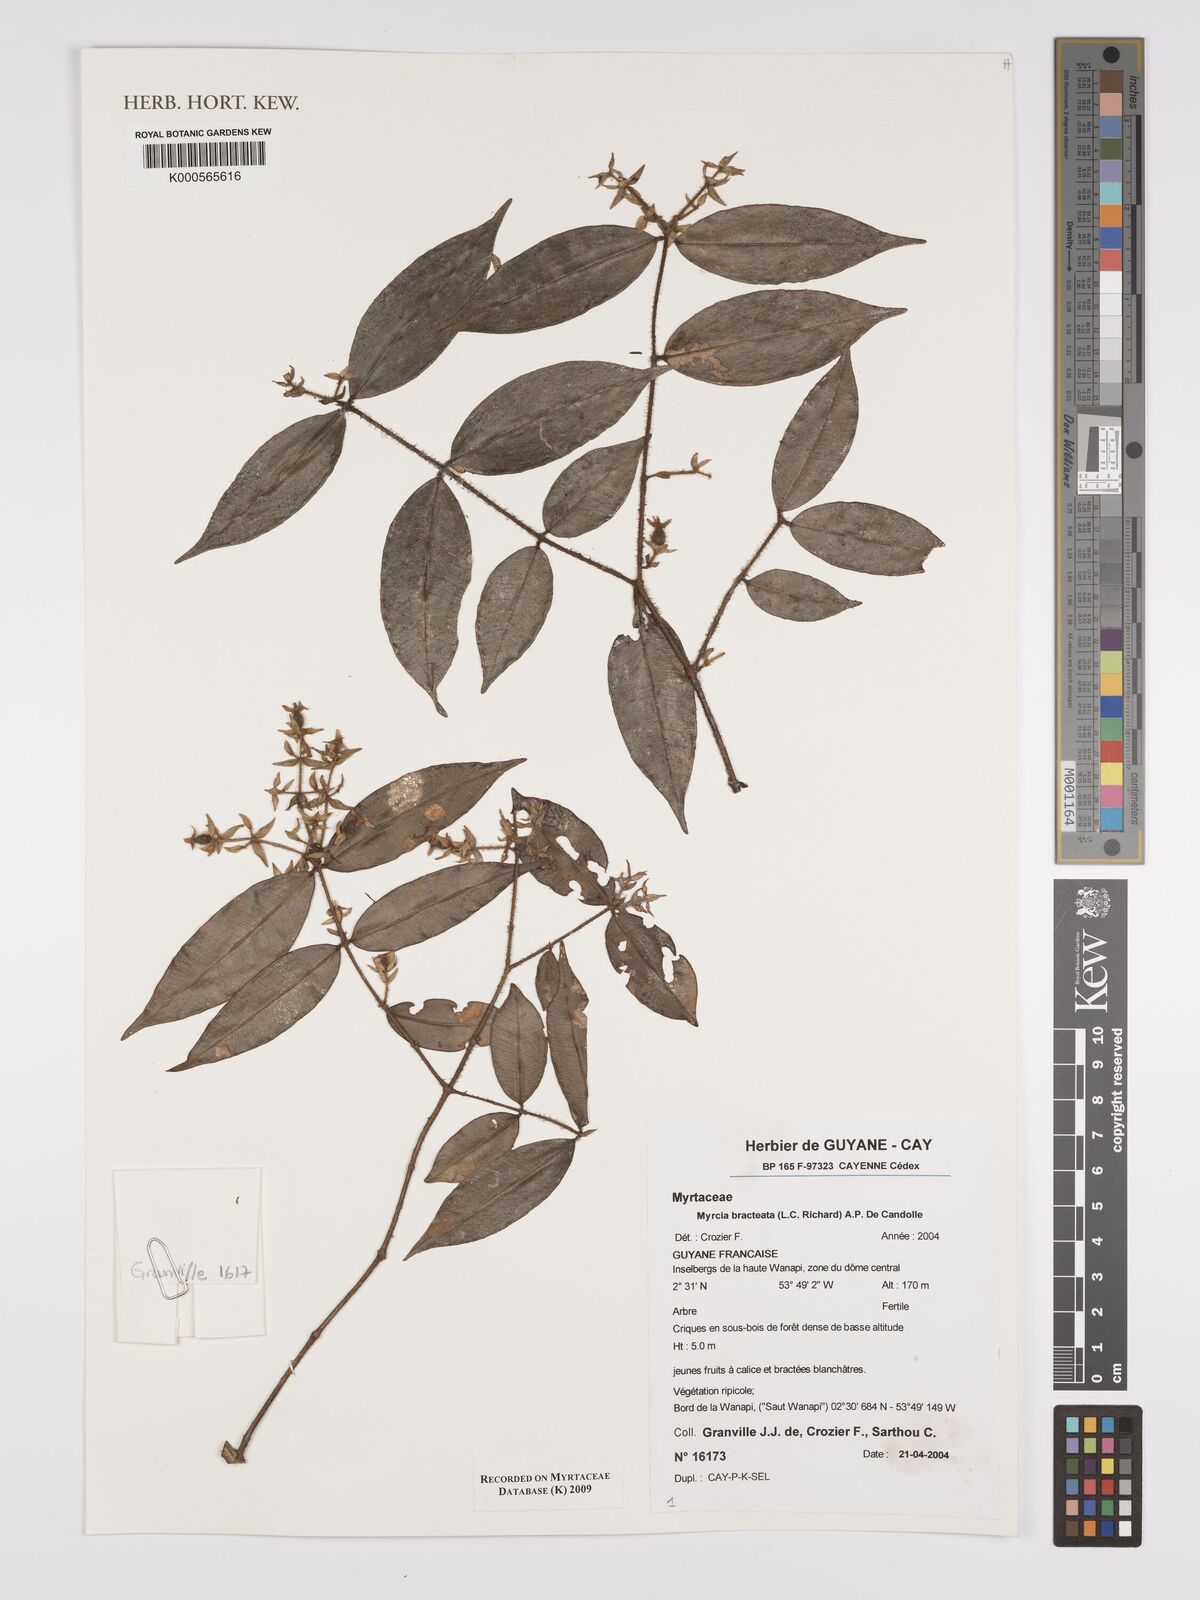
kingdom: Plantae
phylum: Tracheophyta
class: Magnoliopsida
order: Myrtales
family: Myrtaceae
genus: Myrcia
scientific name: Myrcia bracteata
